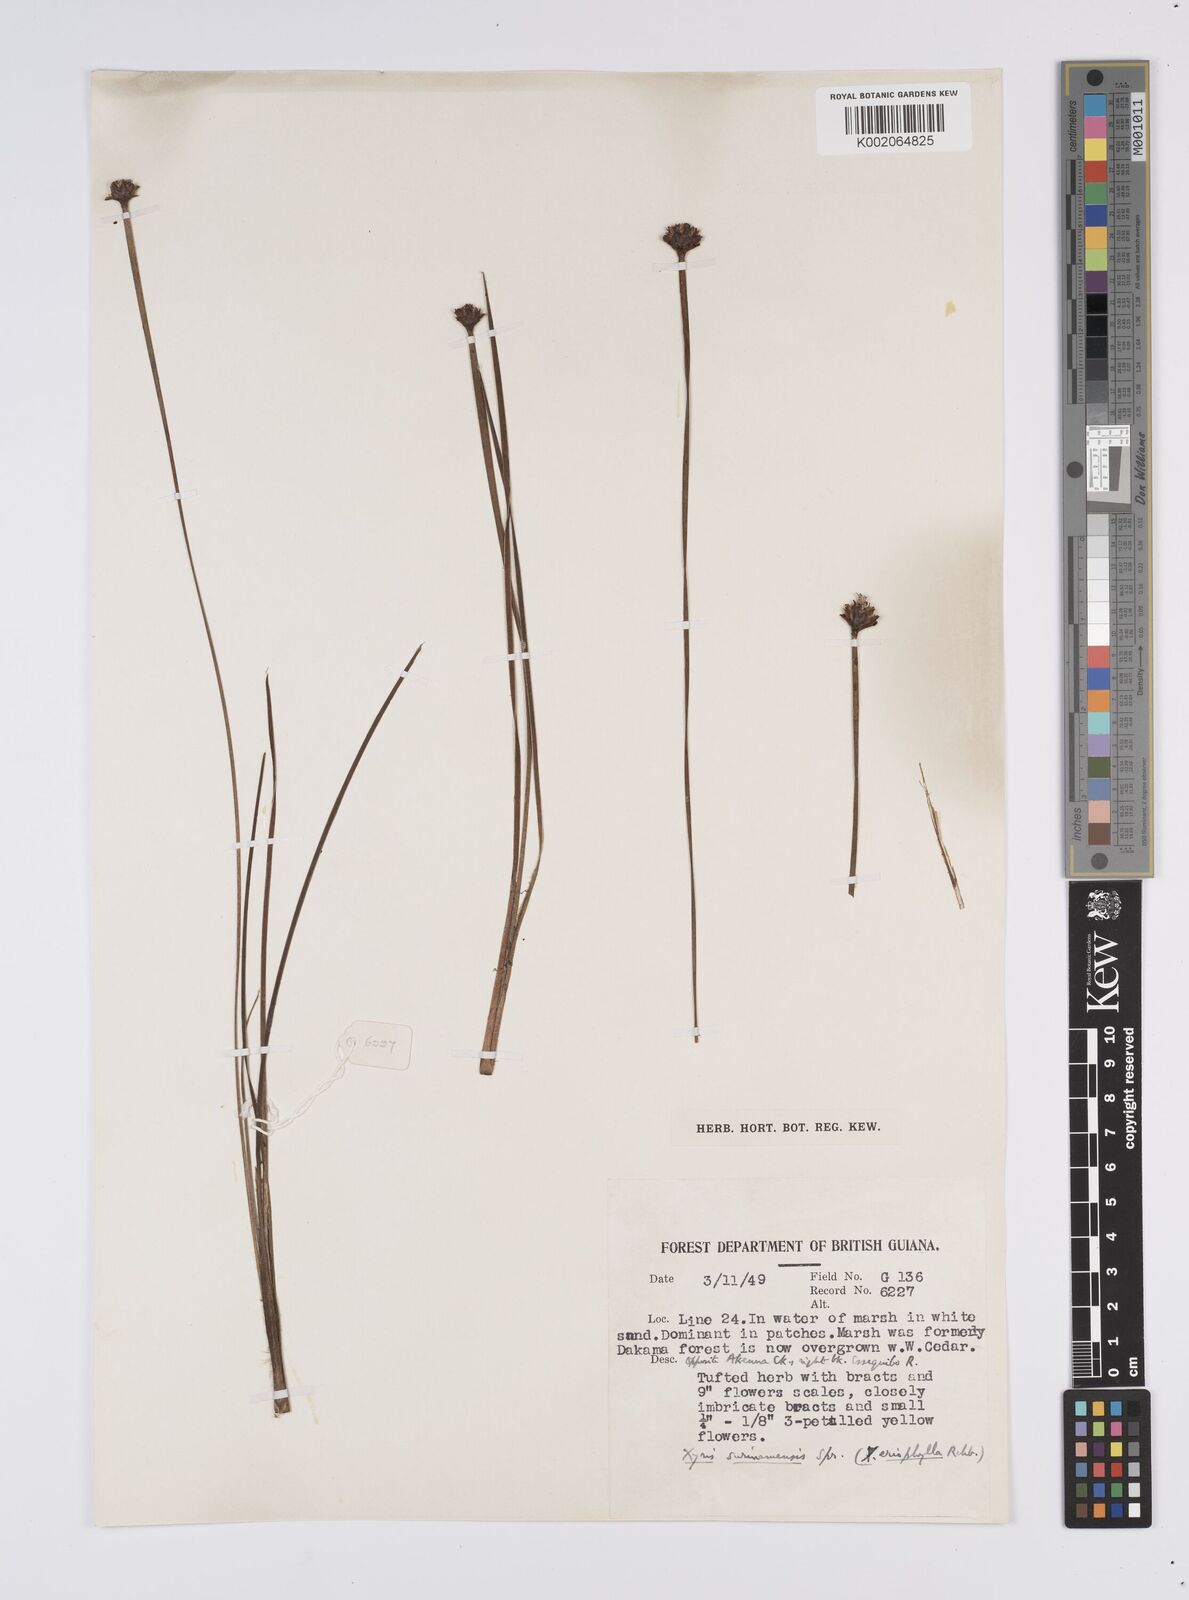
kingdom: Plantae
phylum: Tracheophyta
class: Liliopsida
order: Poales
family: Xyridaceae
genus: Xyris
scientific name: Xyris surinamensis
